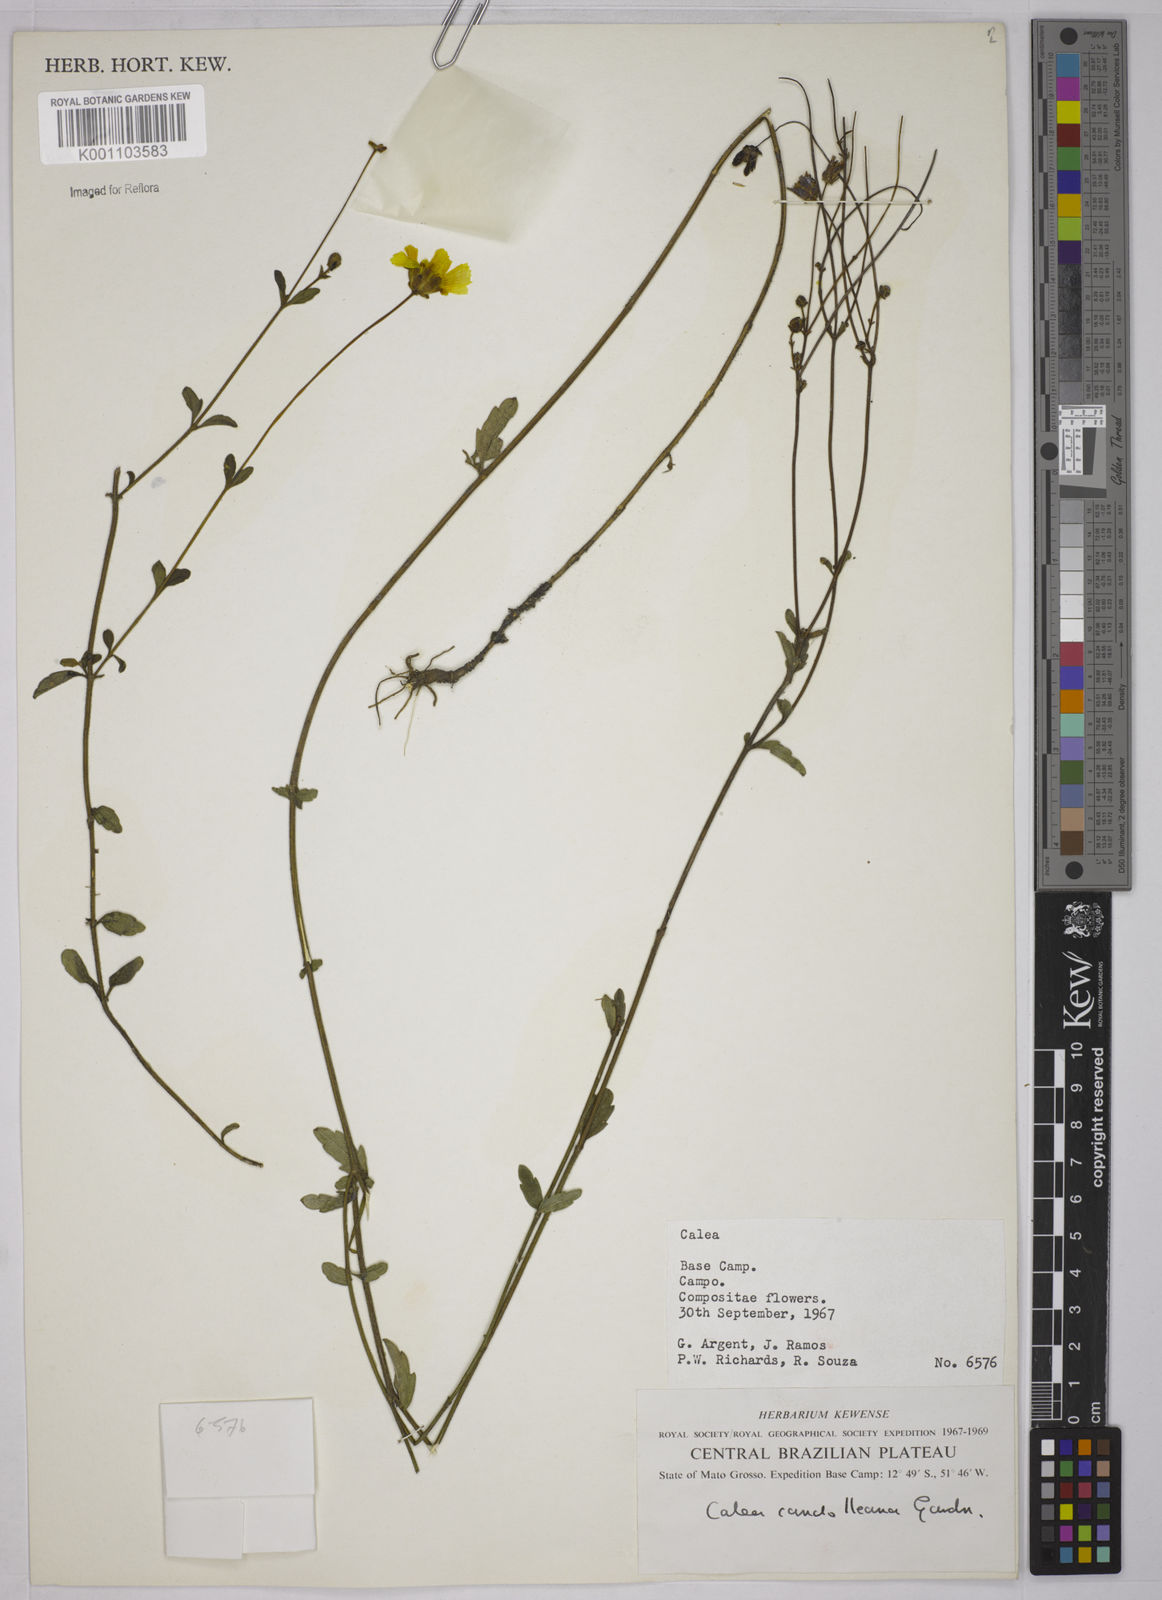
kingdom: Plantae
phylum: Tracheophyta
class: Magnoliopsida
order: Asterales
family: Asteraceae
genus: Calea
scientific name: Calea candolleana
